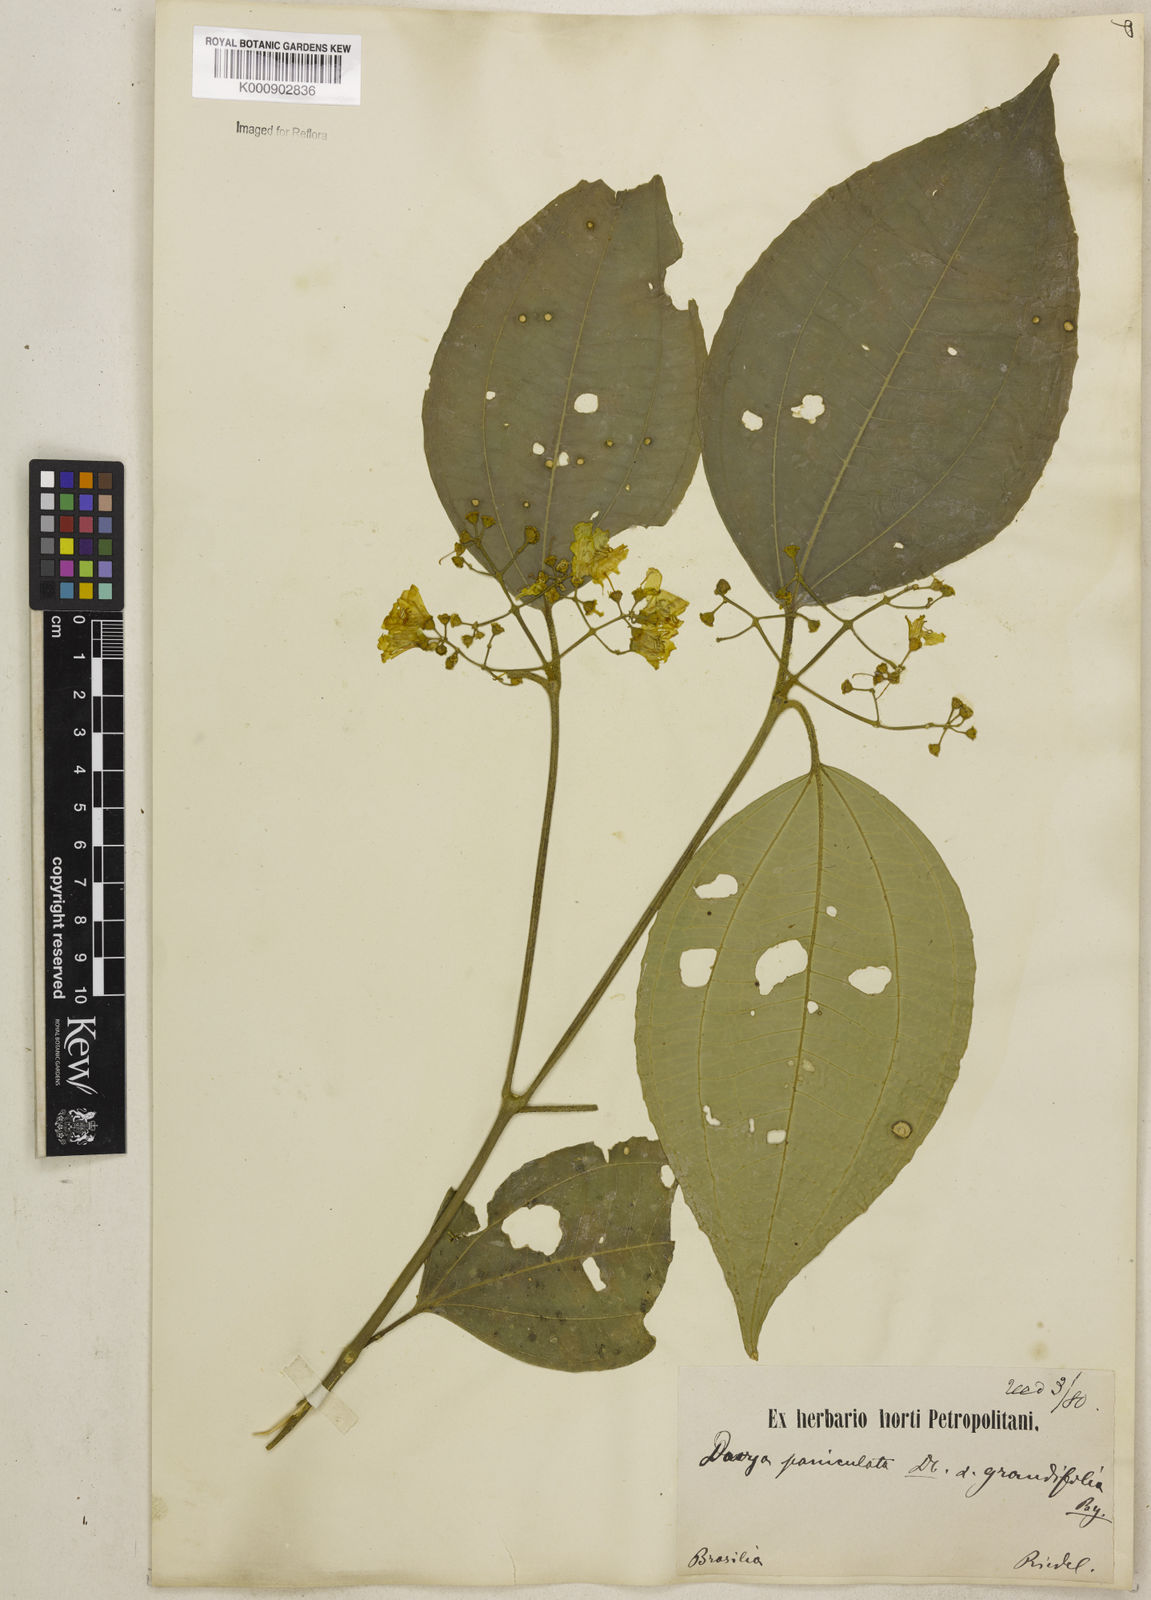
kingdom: Plantae
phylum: Tracheophyta
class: Magnoliopsida
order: Myrtales
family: Melastomataceae
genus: Meriania
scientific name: Meriania paniculata
